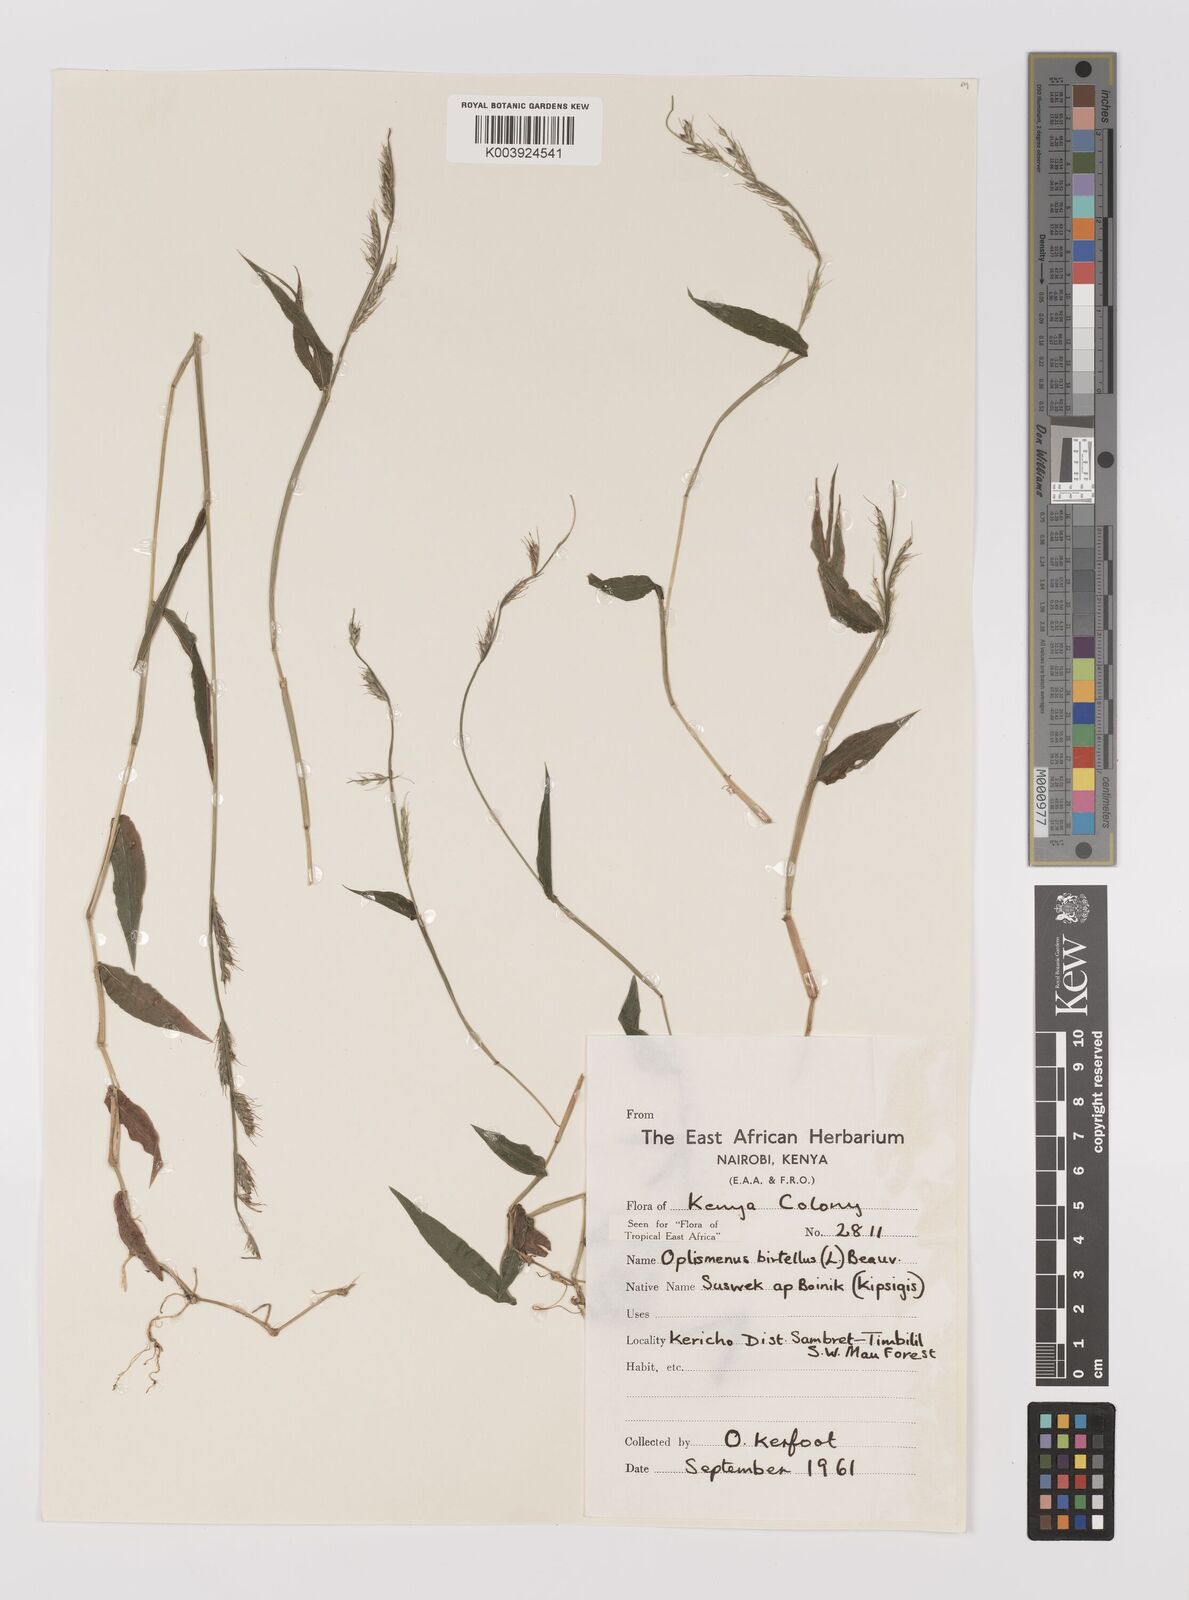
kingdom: Plantae
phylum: Tracheophyta
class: Liliopsida
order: Poales
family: Poaceae
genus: Oplismenus
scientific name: Oplismenus hirtellus
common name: Basketgrass
